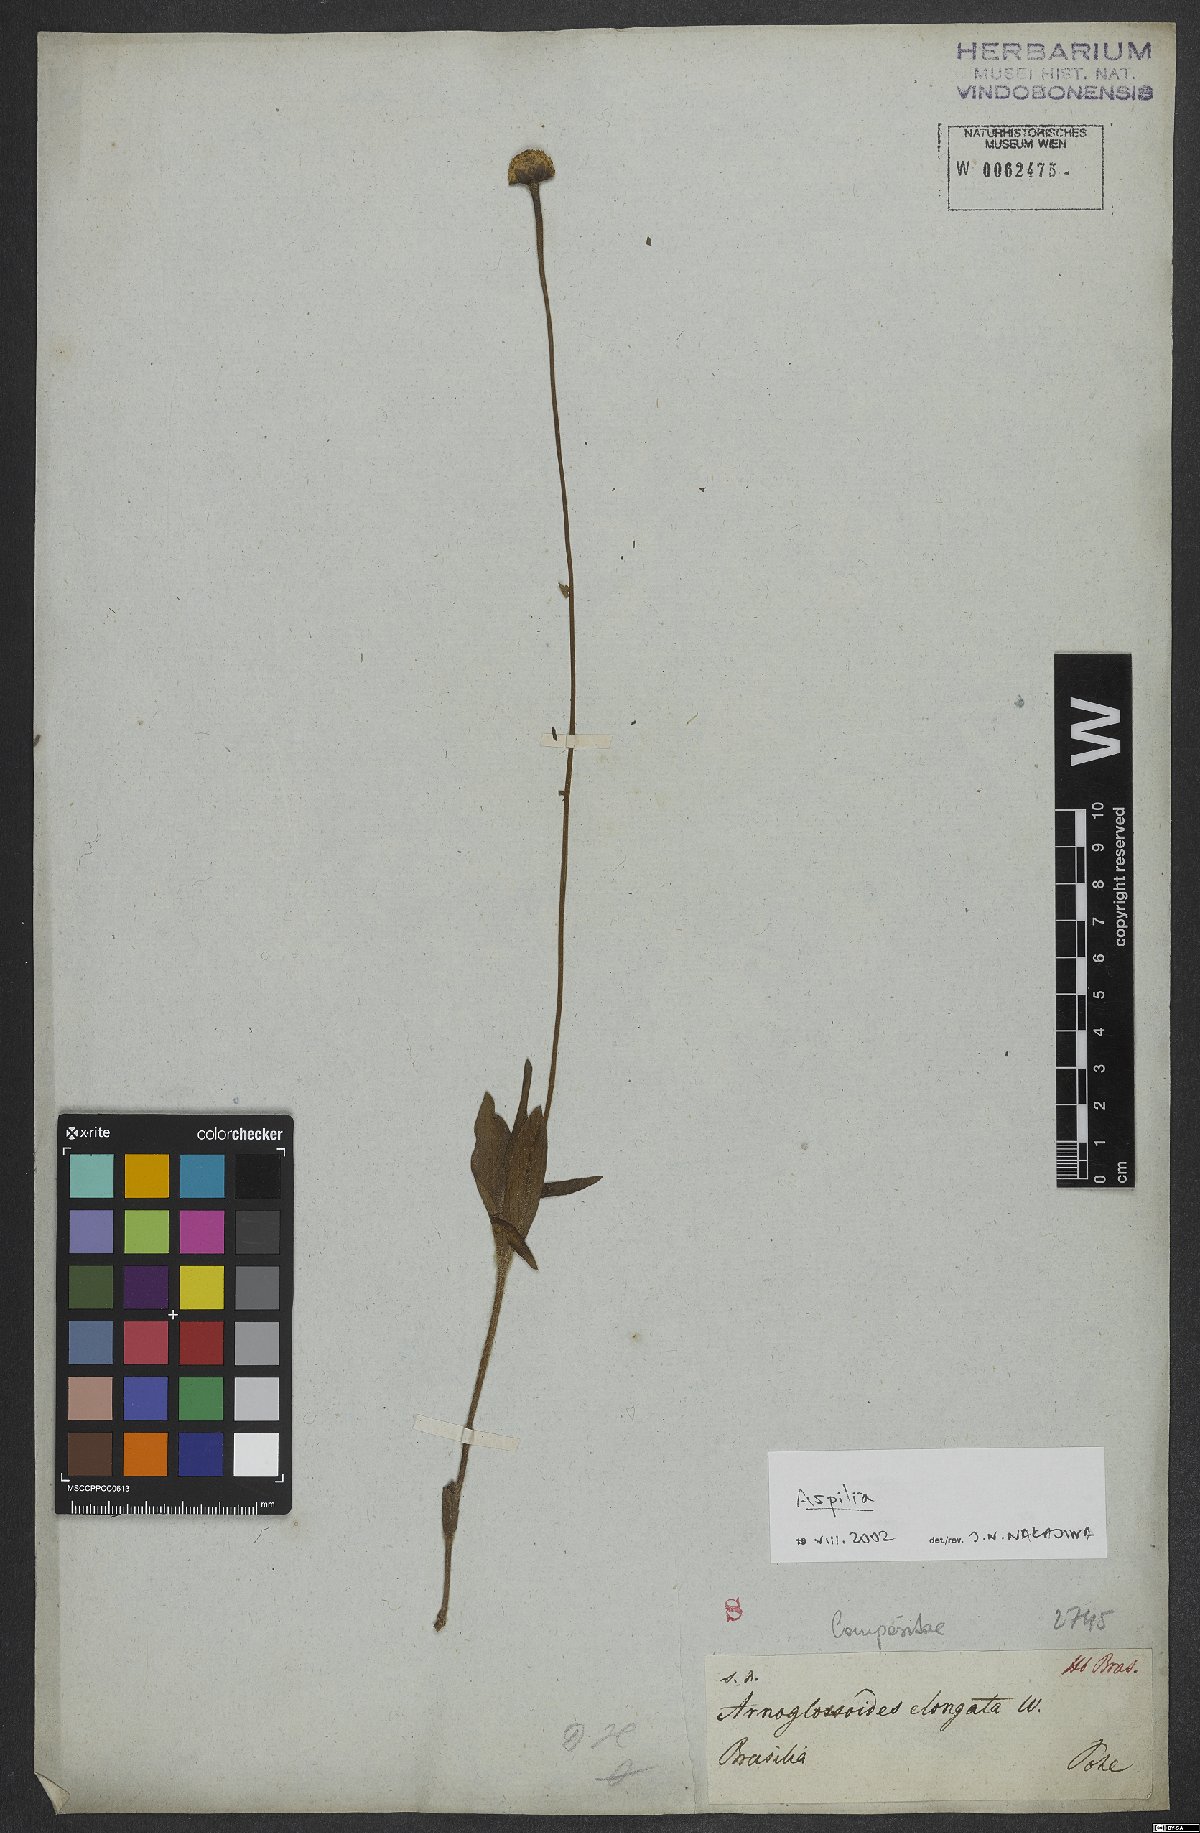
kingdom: Plantae
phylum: Tracheophyta
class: Magnoliopsida
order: Asterales
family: Asteraceae
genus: Aspilia
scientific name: Aspilia
